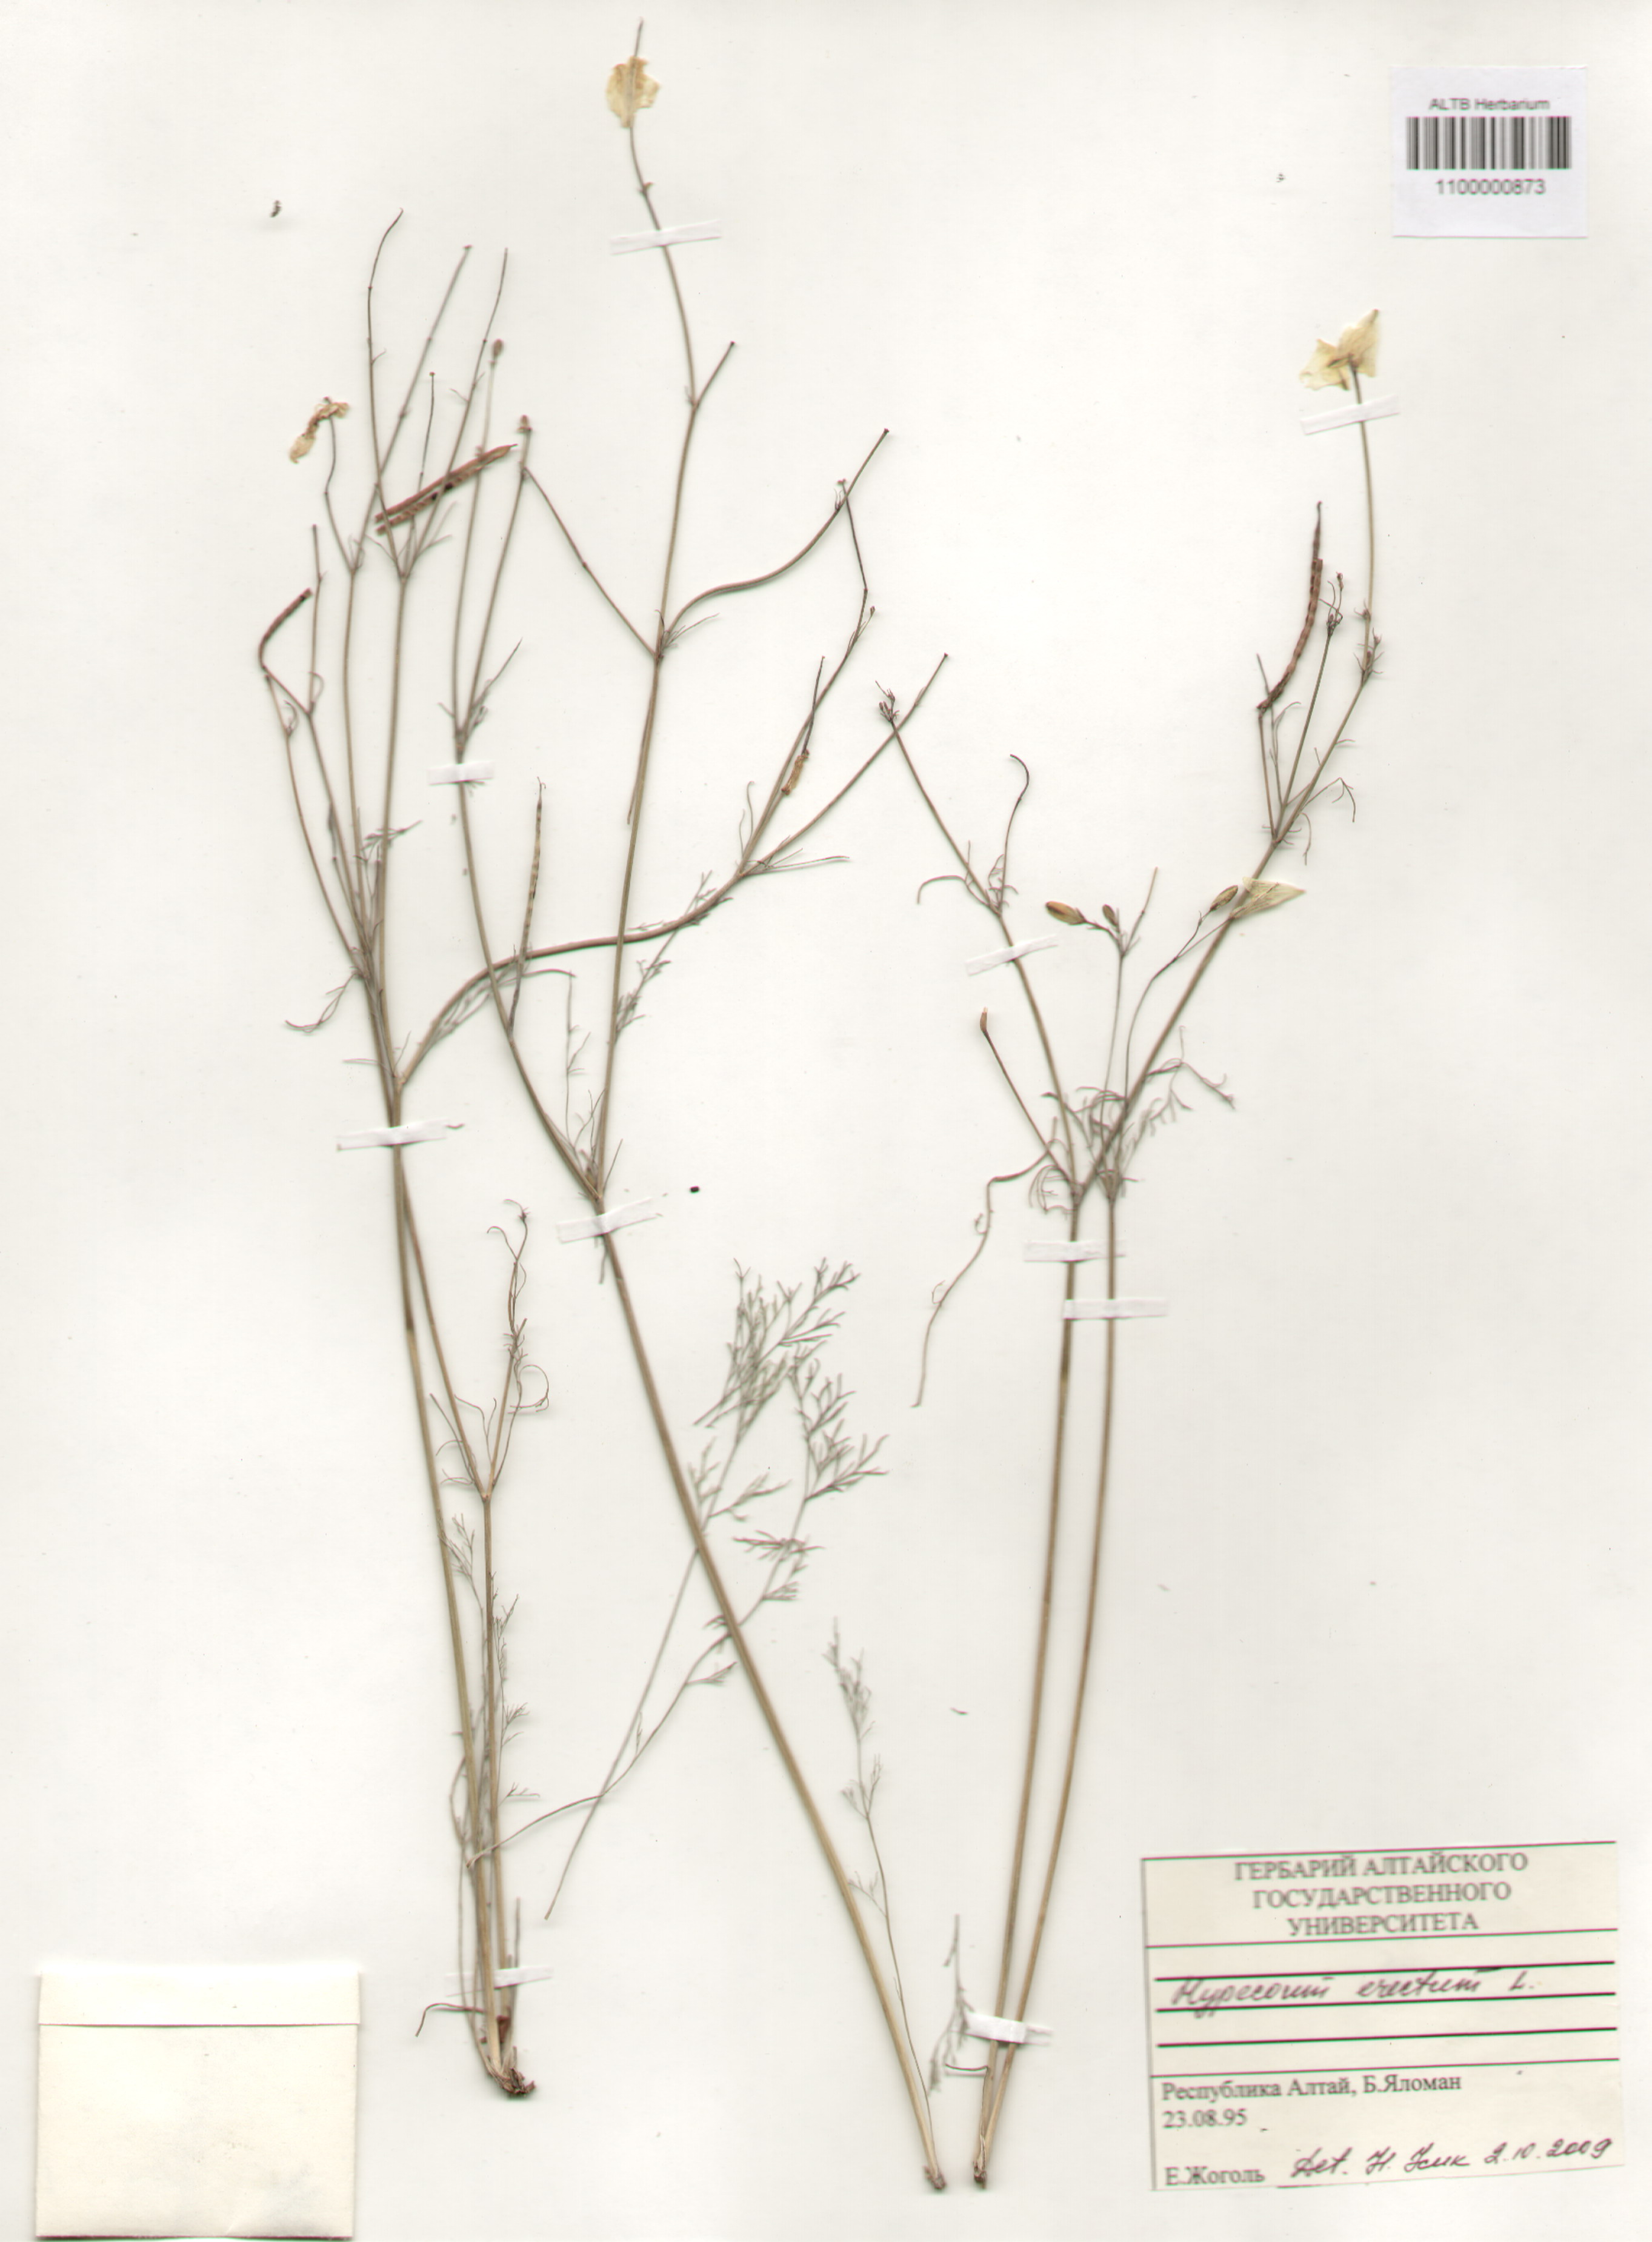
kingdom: Plantae
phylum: Tracheophyta
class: Magnoliopsida
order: Ranunculales
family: Papaveraceae
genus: Hypecoum
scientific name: Hypecoum erectum
